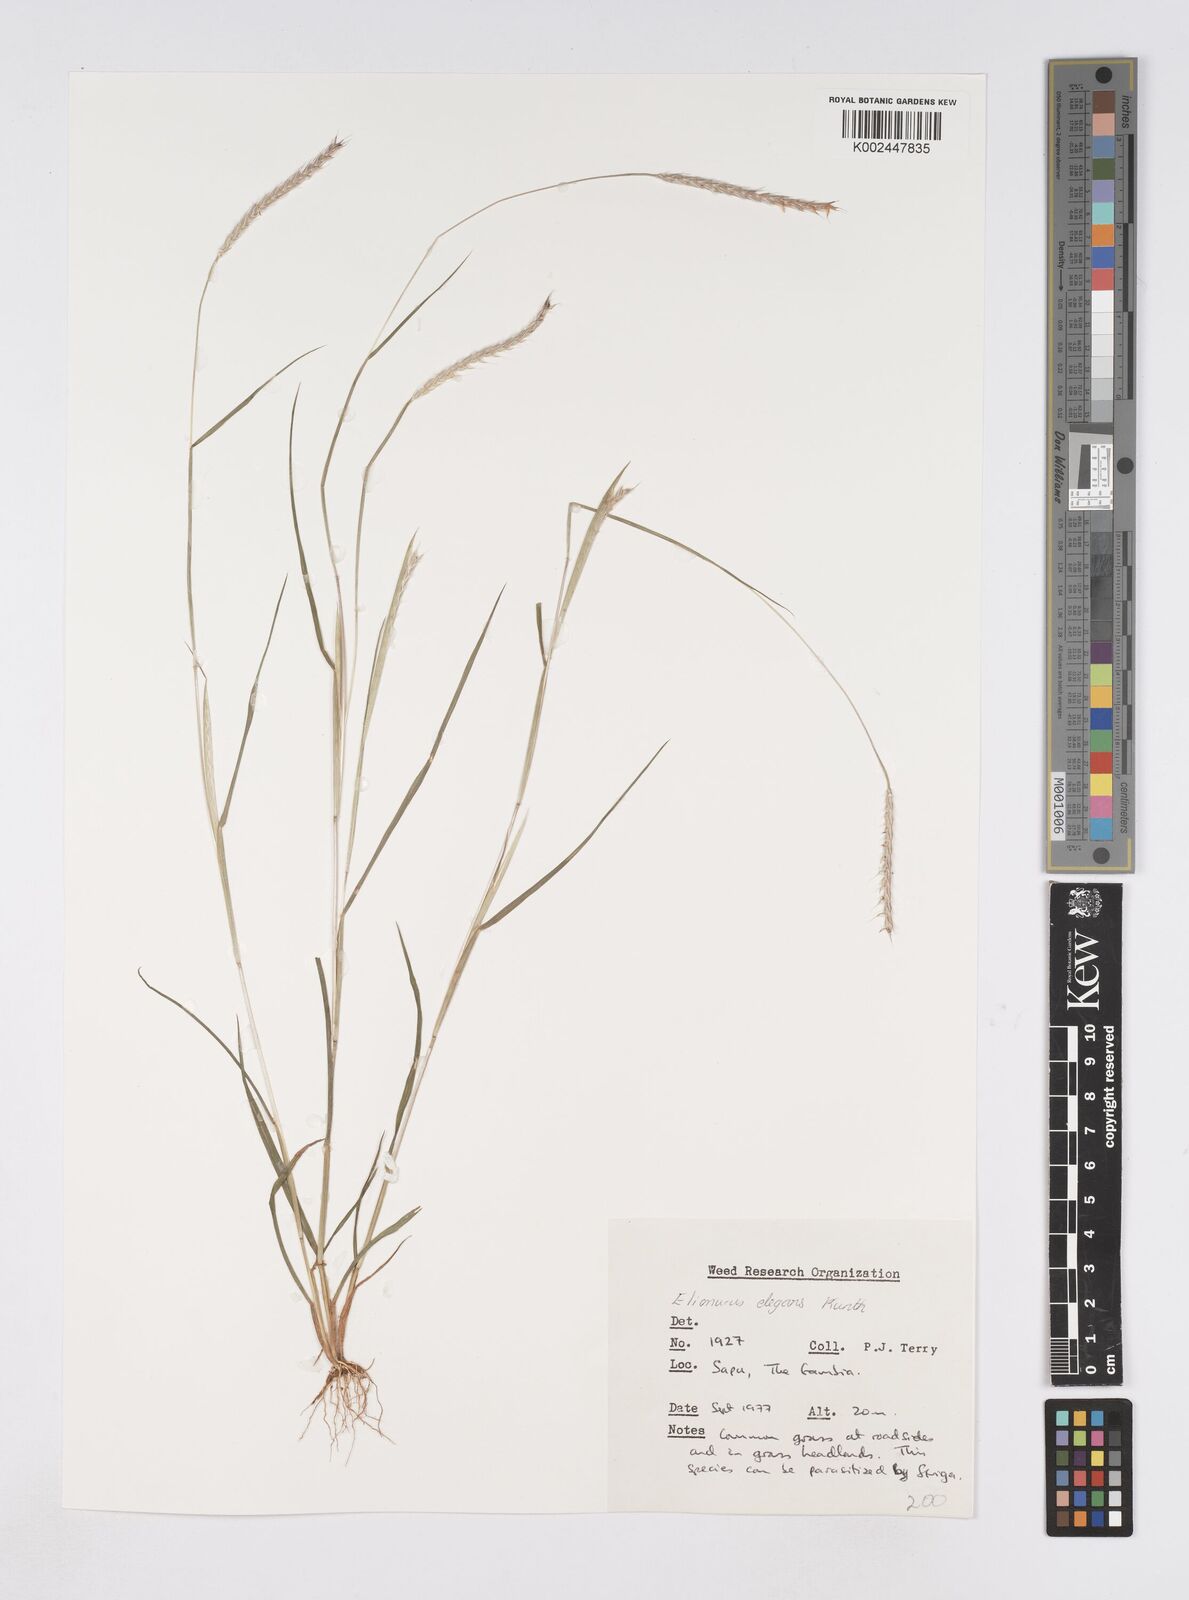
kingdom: Plantae
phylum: Tracheophyta
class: Liliopsida
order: Poales
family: Poaceae
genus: Elionurus
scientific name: Elionurus elegans
